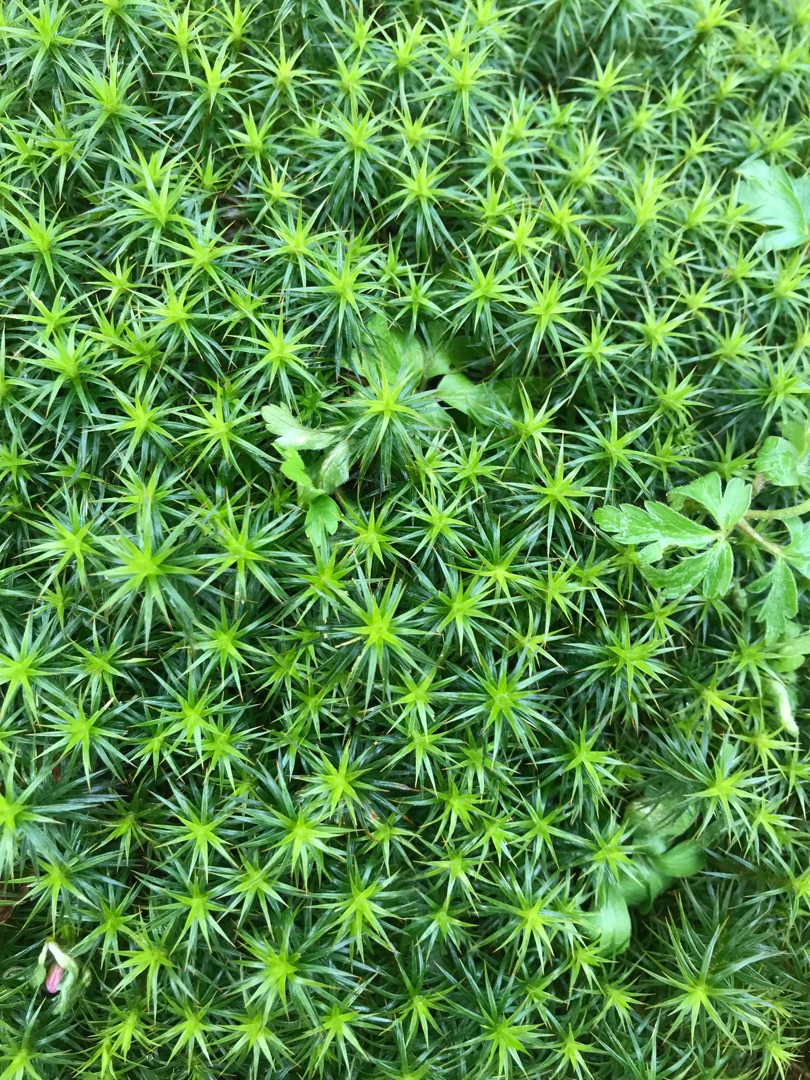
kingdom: Plantae
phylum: Bryophyta
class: Polytrichopsida
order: Polytrichales
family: Polytrichaceae
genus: Polytrichum
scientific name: Polytrichum formosum
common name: Skov-jomfruhår
